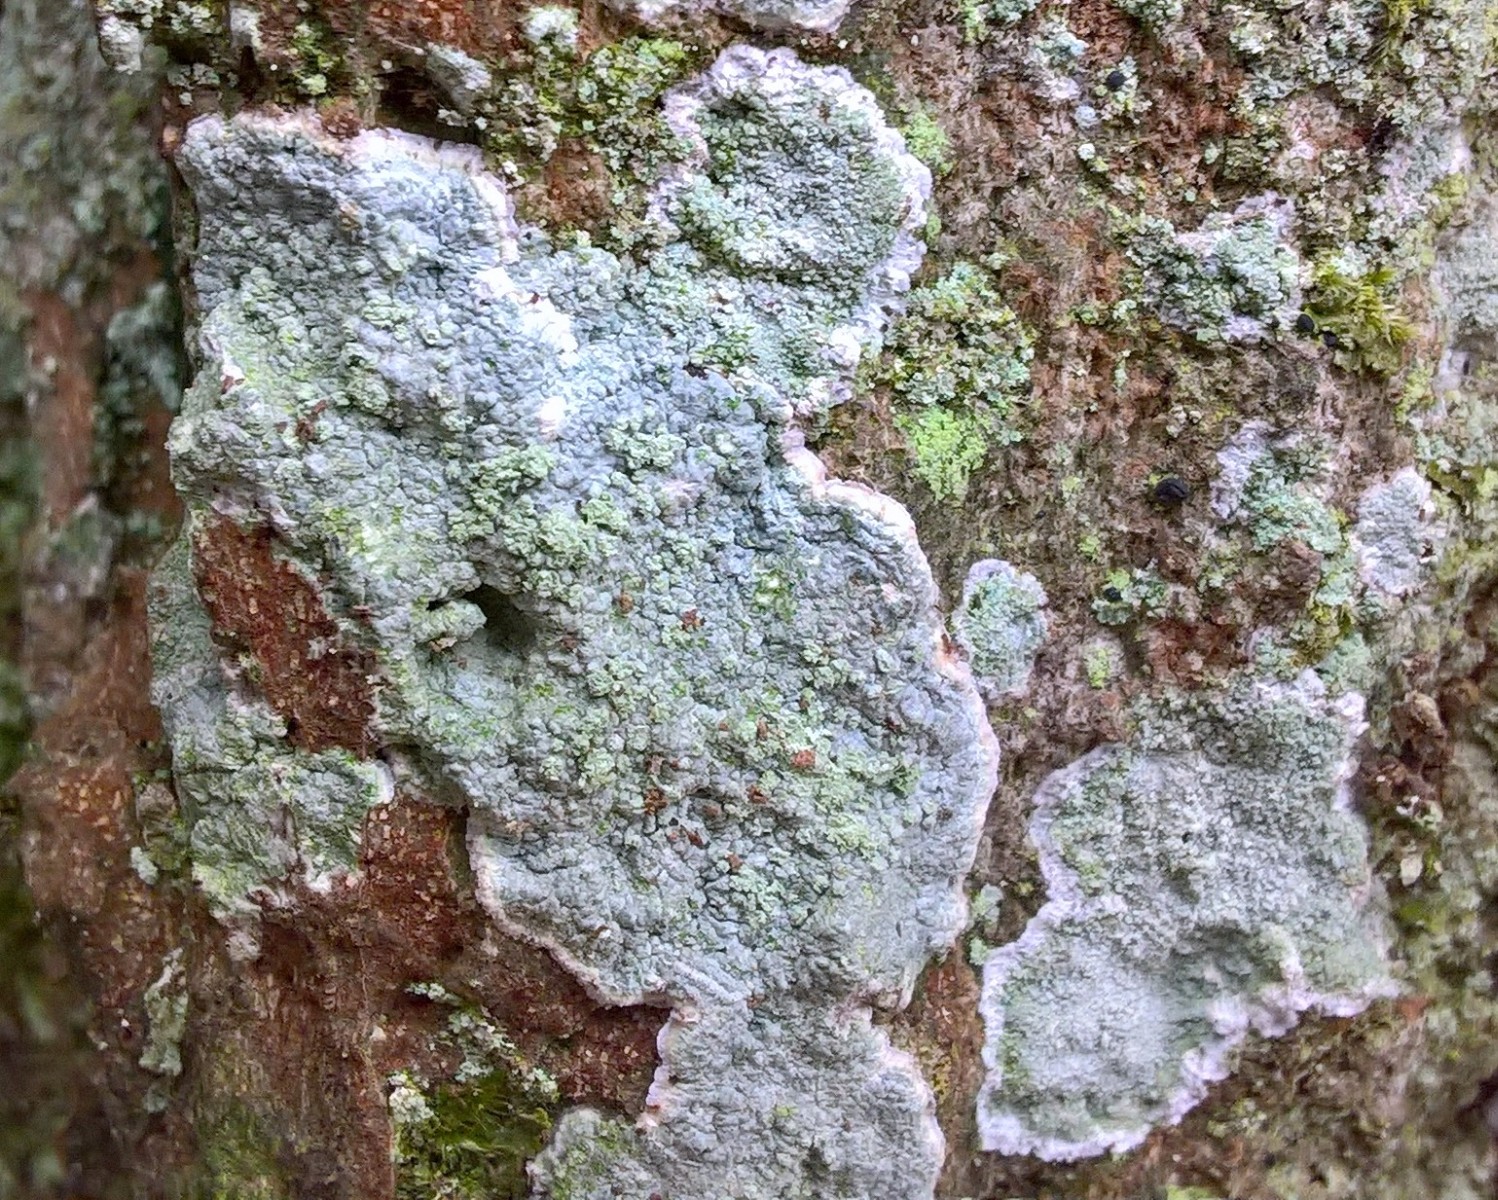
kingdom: Fungi
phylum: Ascomycota
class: Lecanoromycetes
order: Lecanorales
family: Haematommataceae
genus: Haematomma
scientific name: Haematomma ochroleucum
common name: gul trådkantlav
